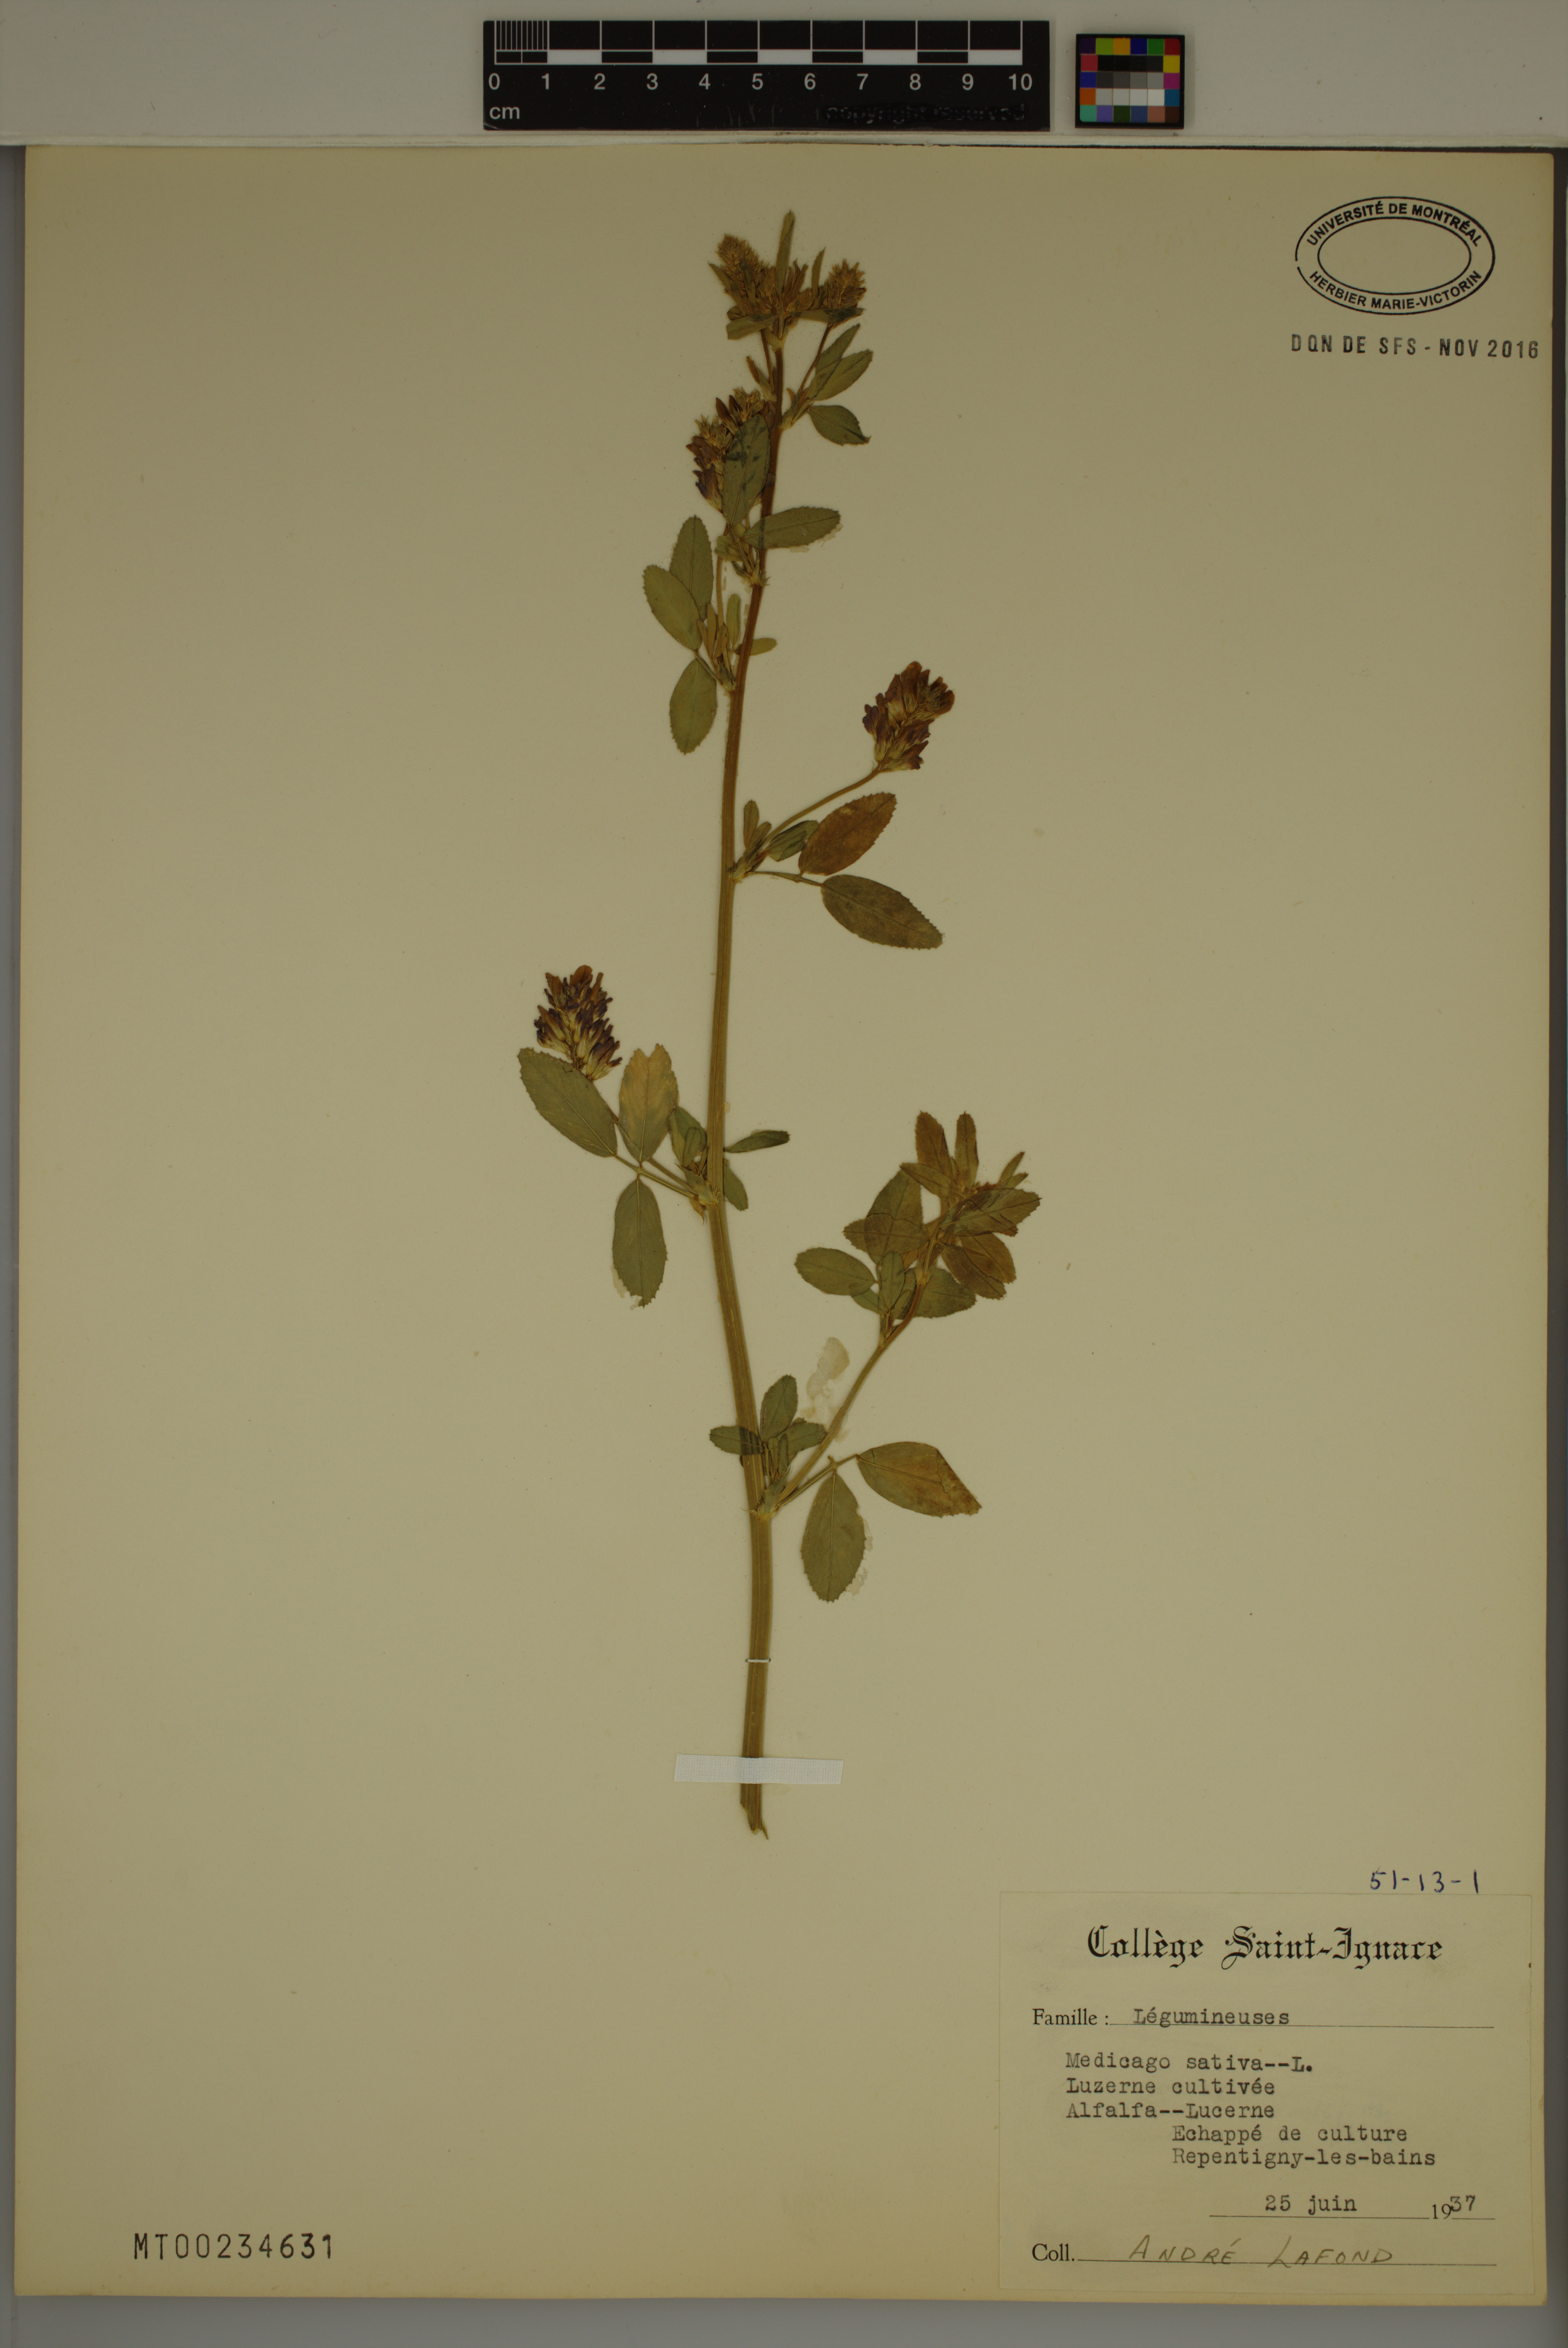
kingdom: Plantae
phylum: Tracheophyta
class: Magnoliopsida
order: Fabales
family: Fabaceae
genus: Medicago
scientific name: Medicago sativa
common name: Alfalfa
